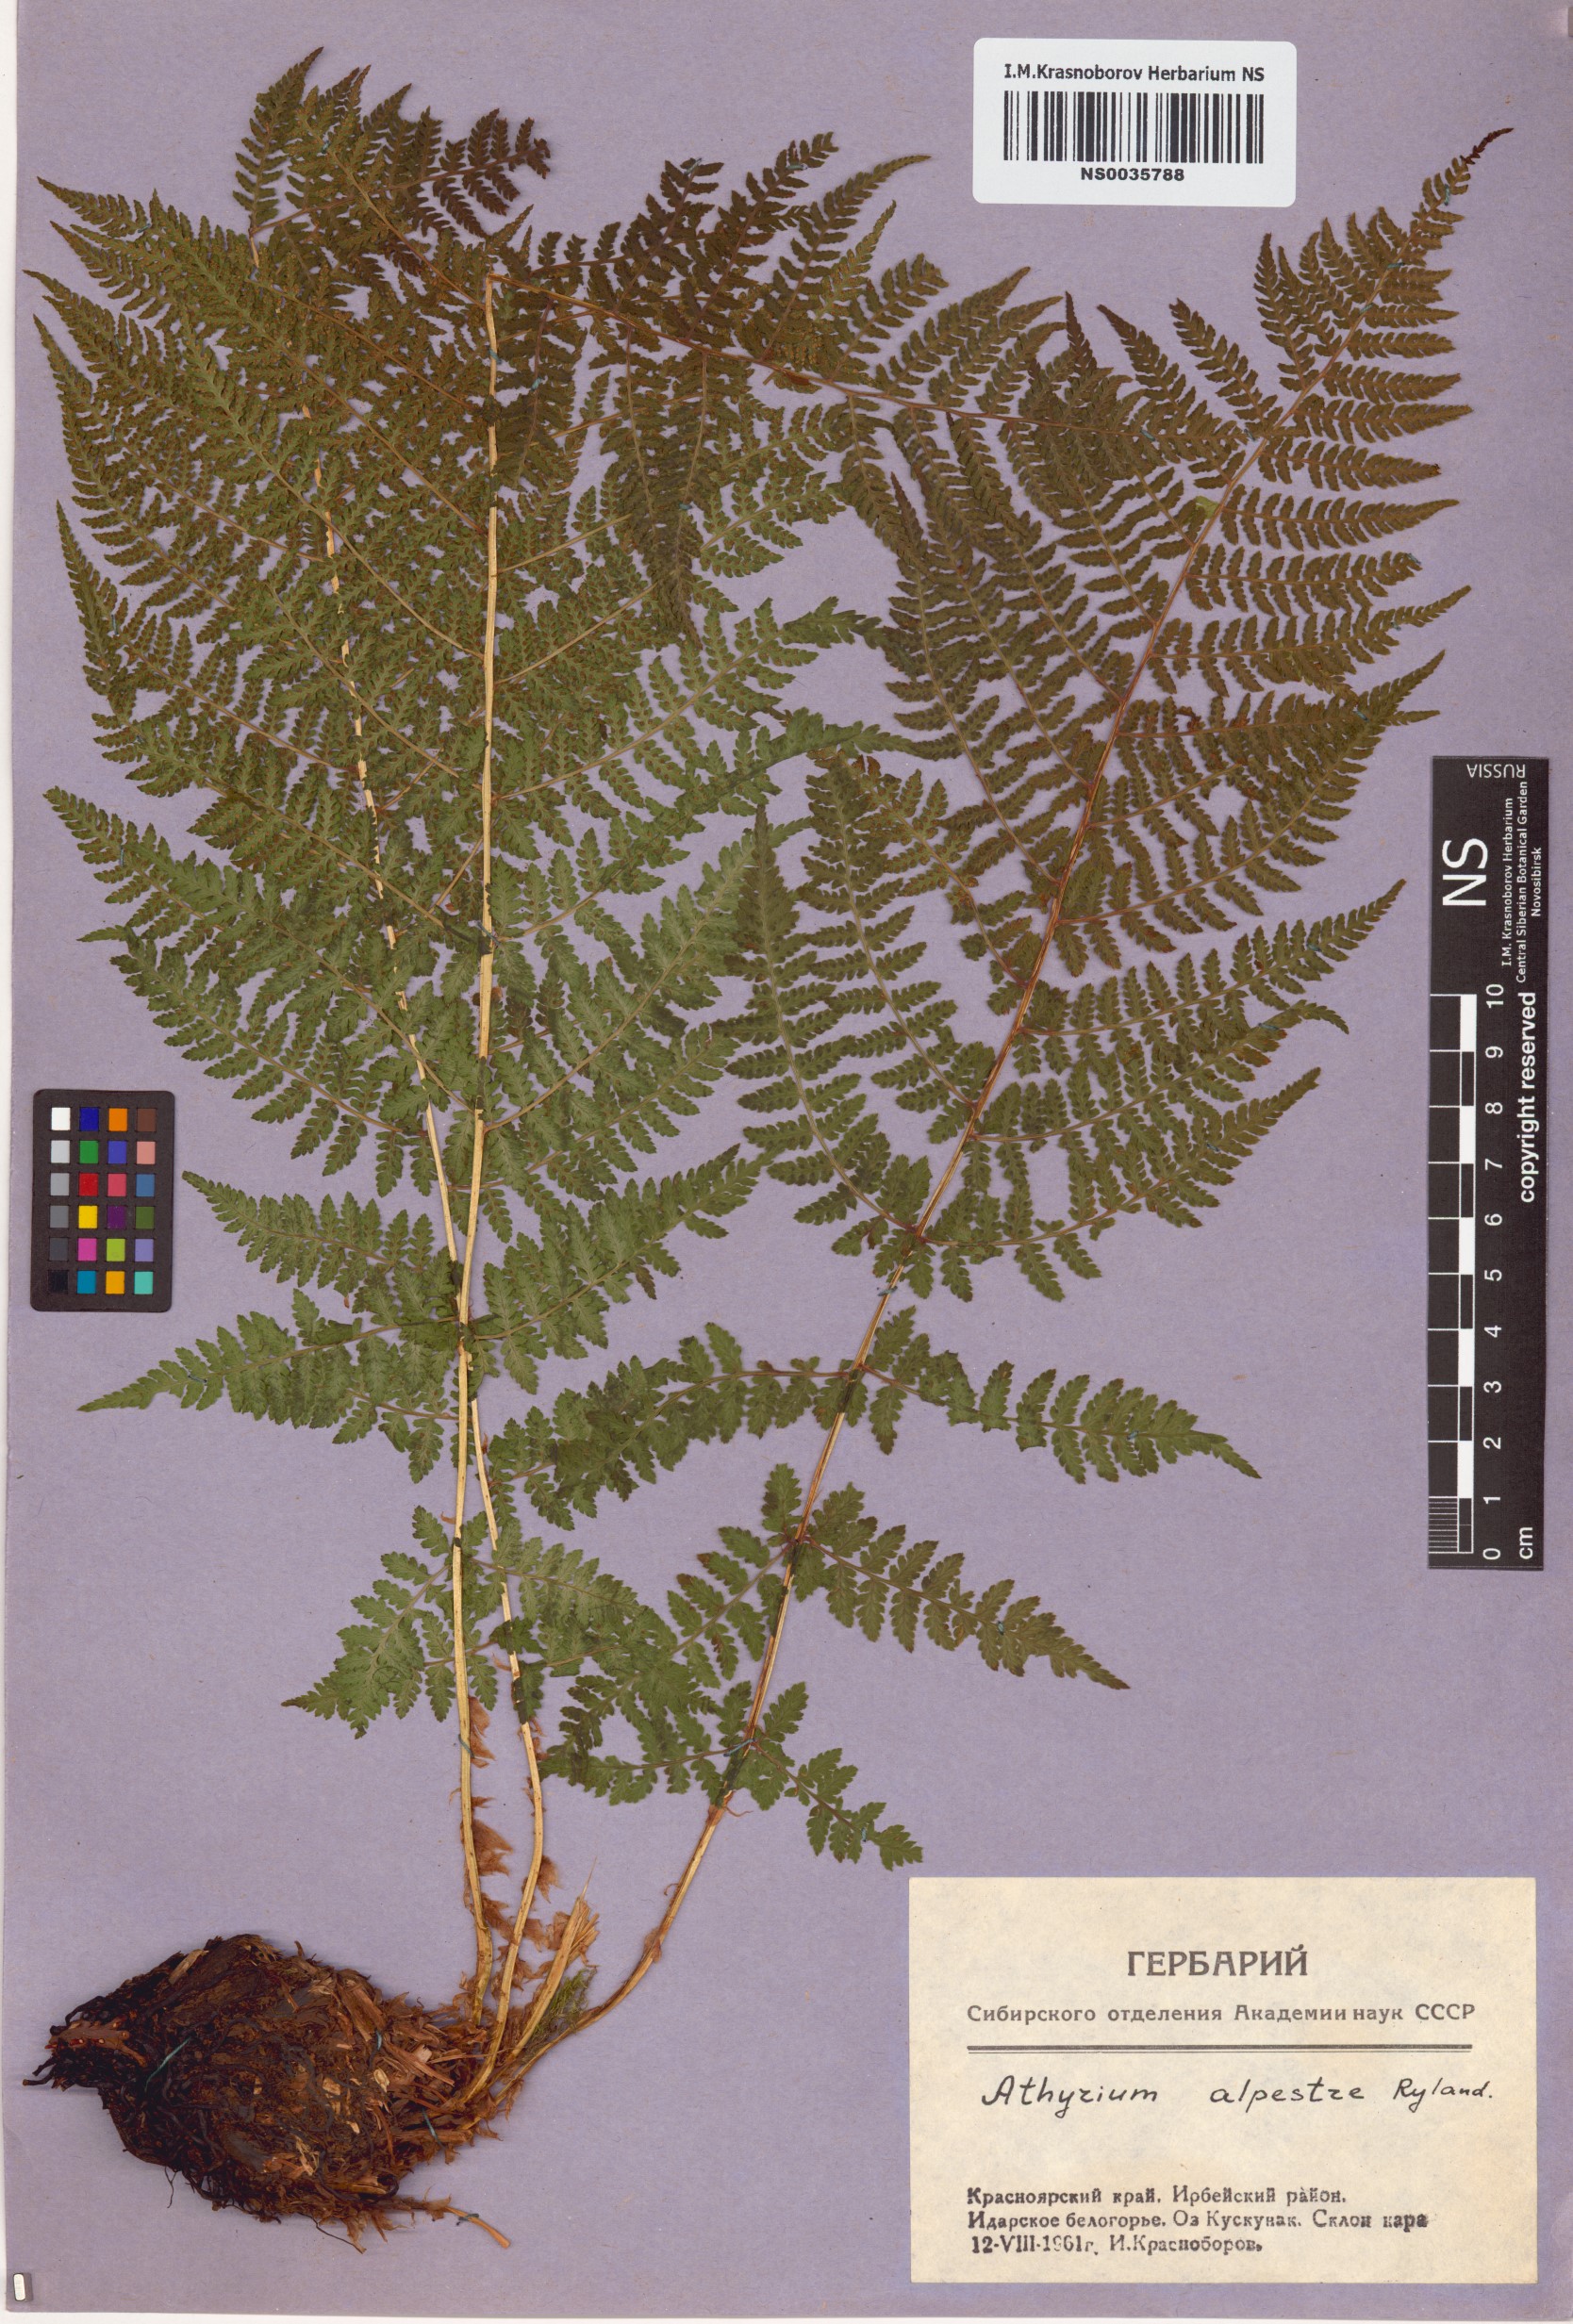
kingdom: Plantae
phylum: Tracheophyta
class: Polypodiopsida
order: Polypodiales
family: Athyriaceae
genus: Pseudathyrium
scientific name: Pseudathyrium alpestre
